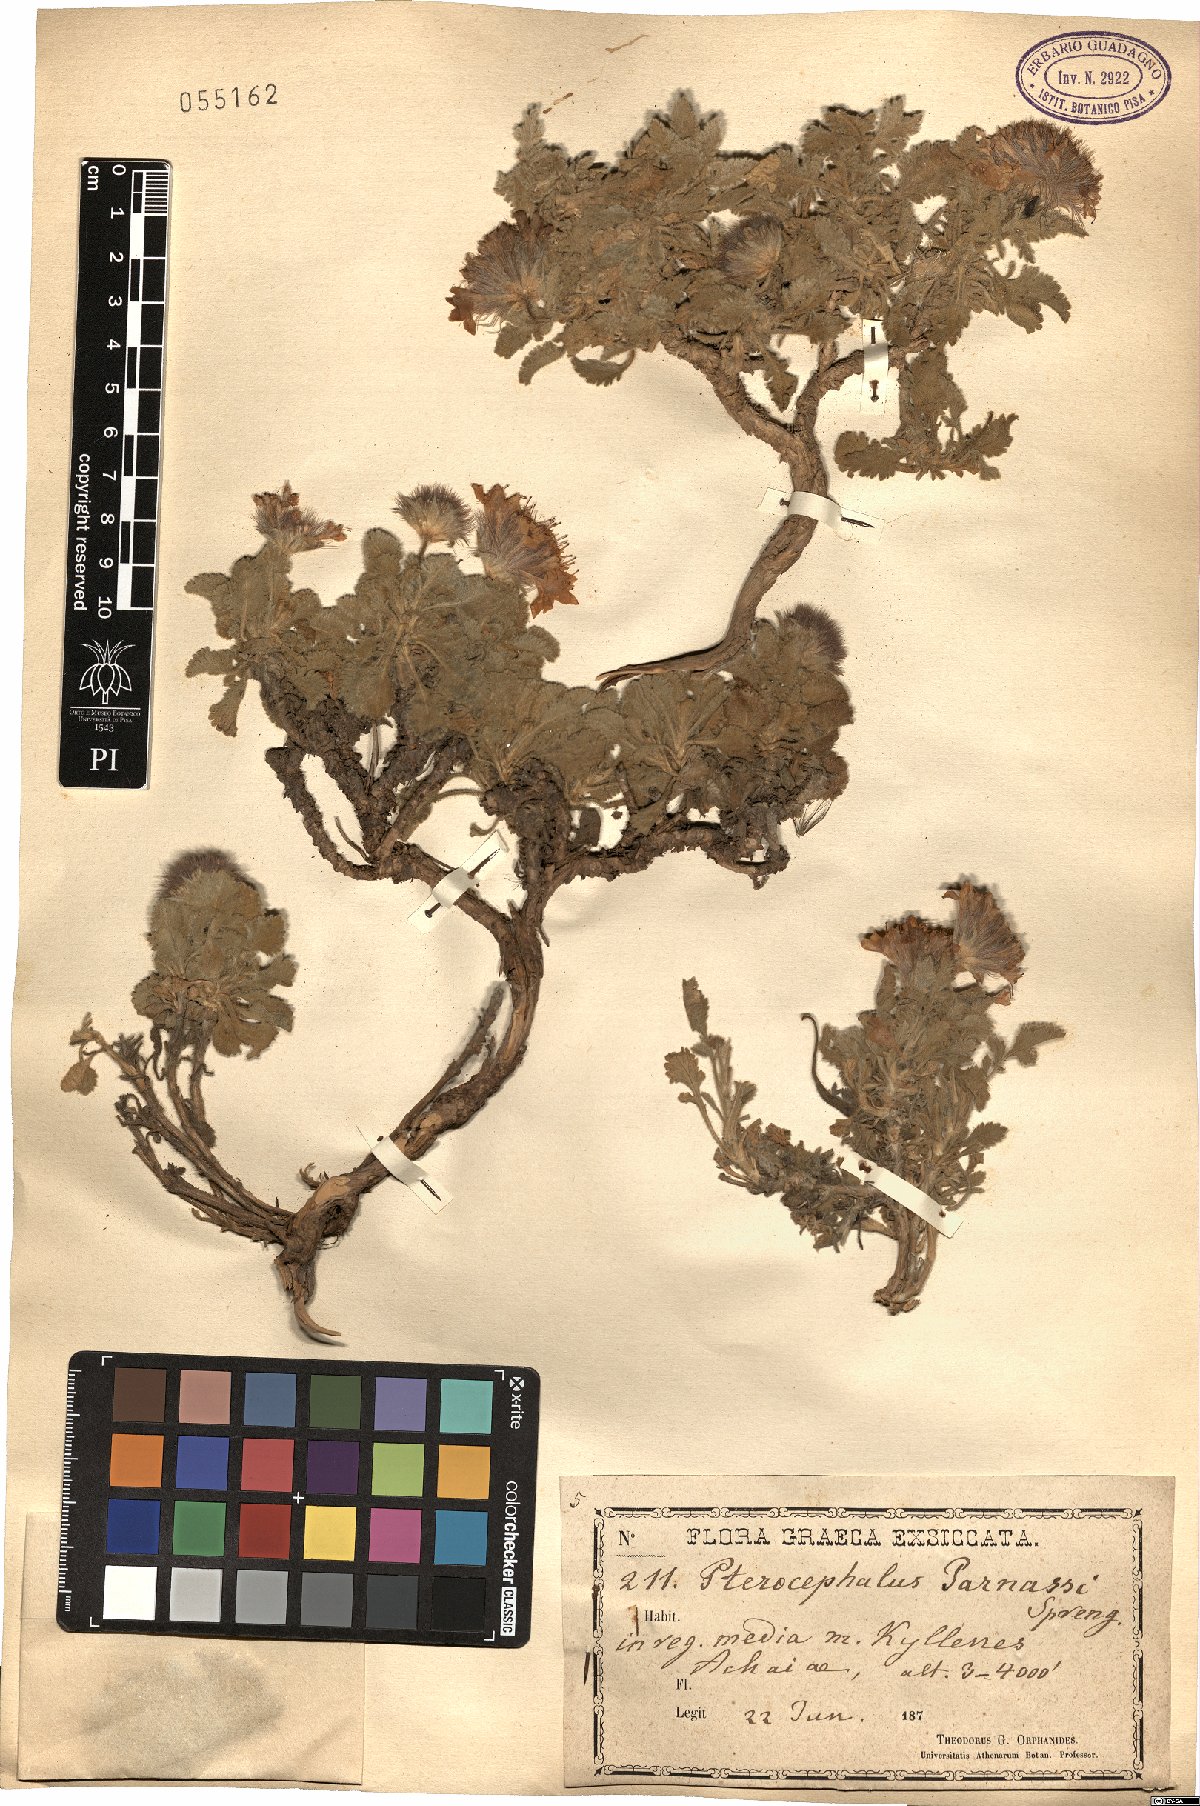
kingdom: Plantae
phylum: Tracheophyta
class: Magnoliopsida
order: Dipsacales
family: Caprifoliaceae
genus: Pterocephalus
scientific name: Pterocephalus perennis
